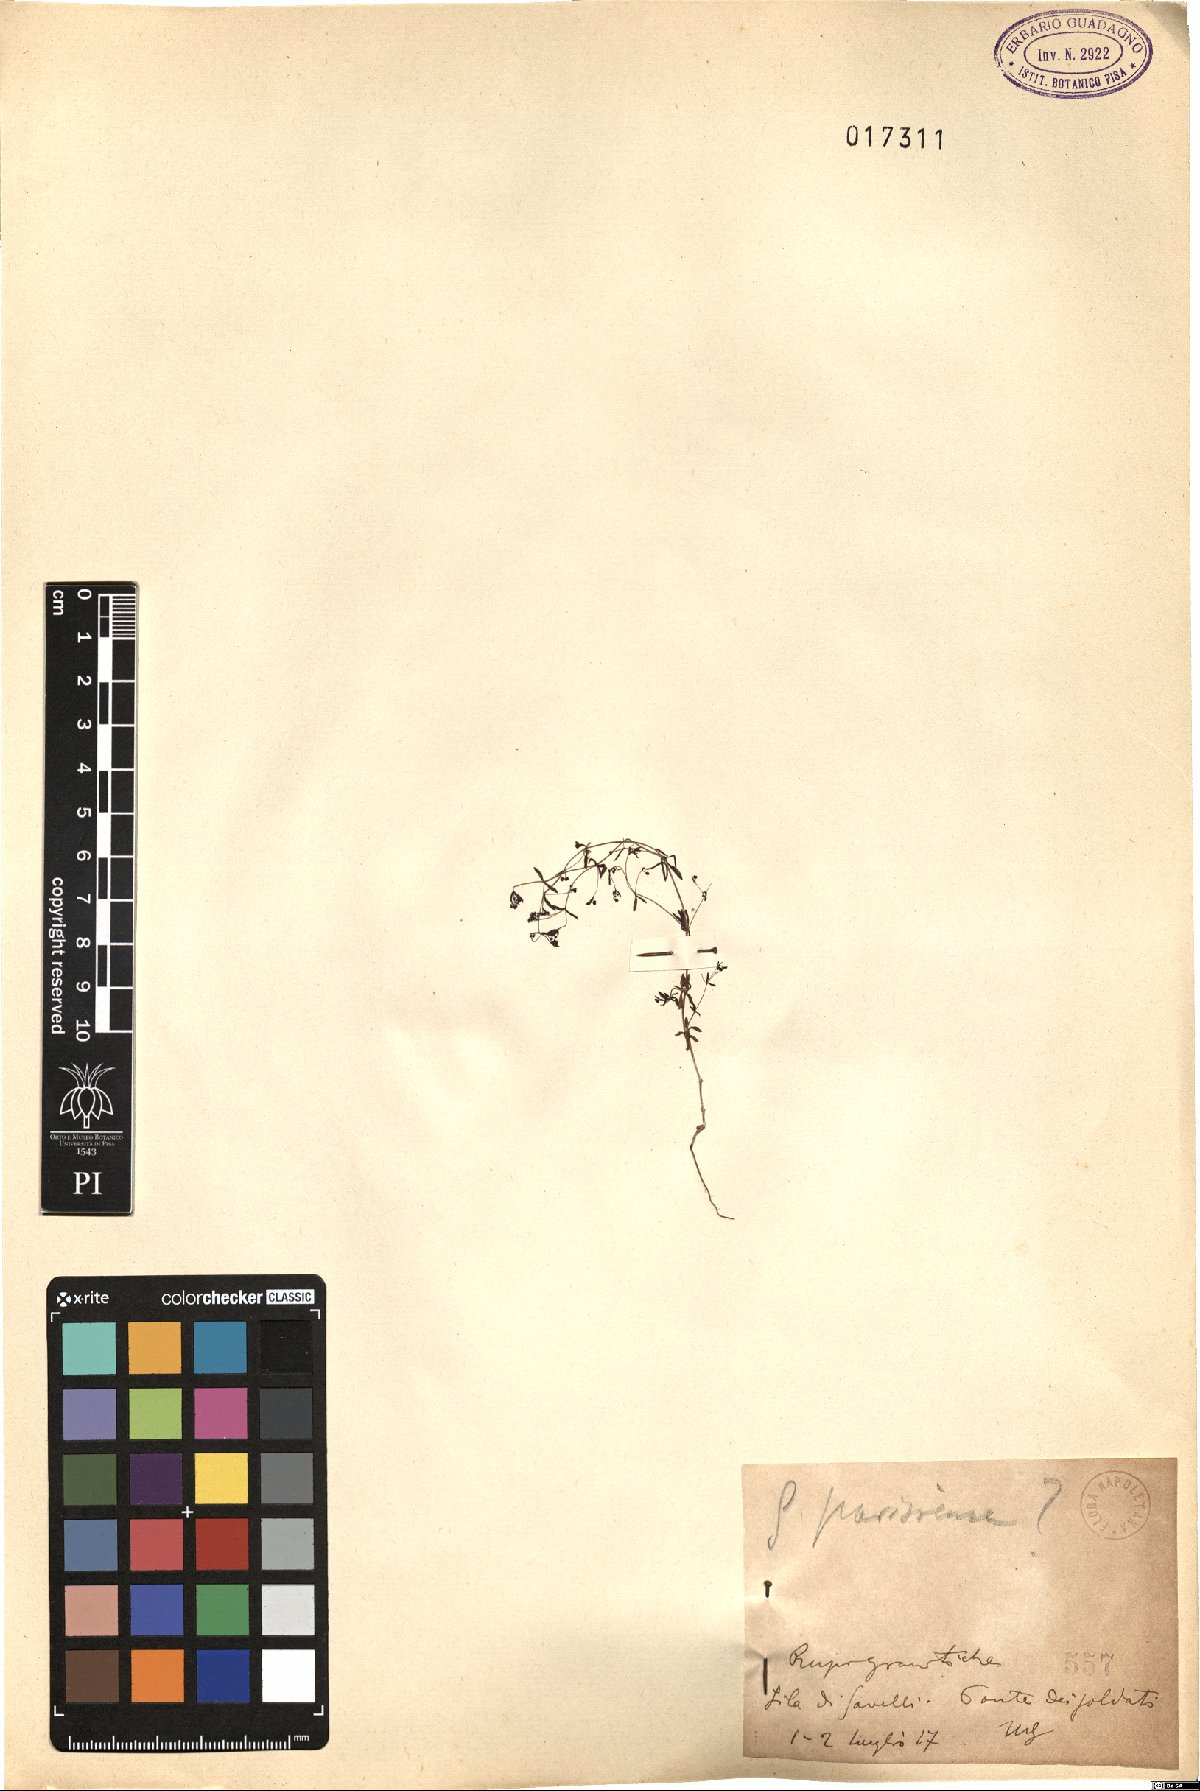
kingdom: Plantae
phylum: Tracheophyta
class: Magnoliopsida
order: Gentianales
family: Rubiaceae
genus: Galium
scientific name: Galium parisiense
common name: Wall bedstraw
